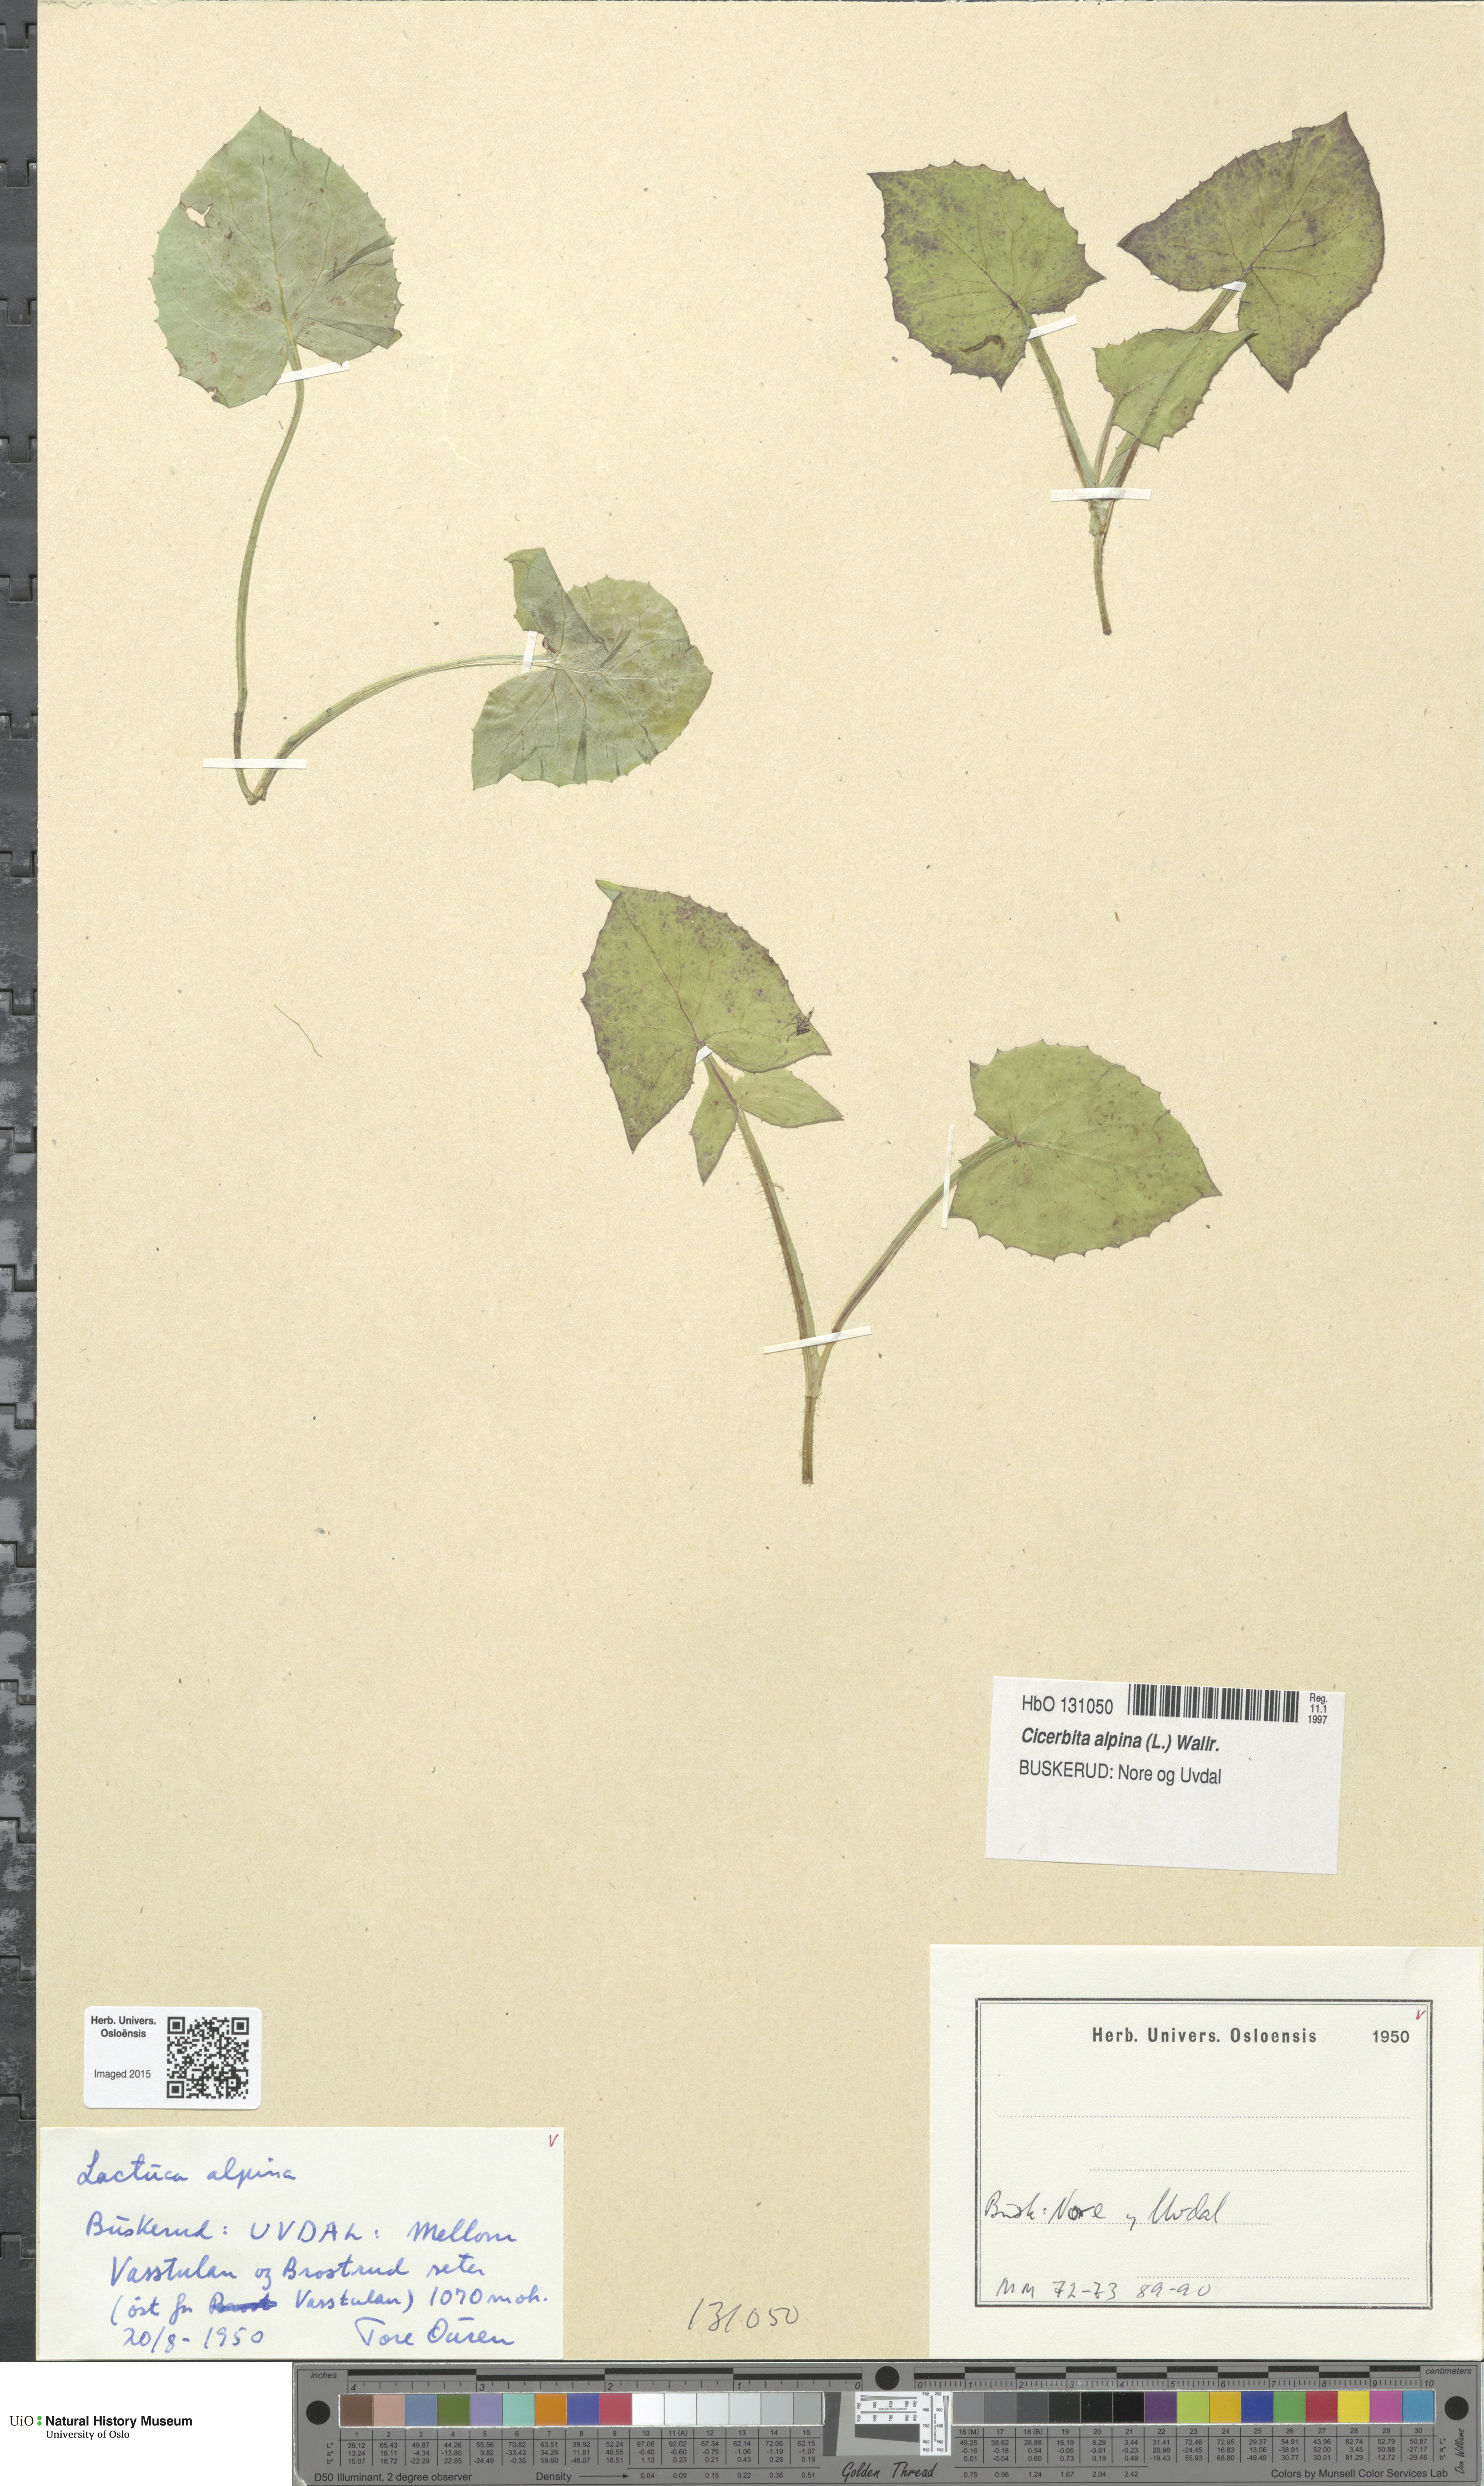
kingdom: Plantae
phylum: Tracheophyta
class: Magnoliopsida
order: Asterales
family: Asteraceae
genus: Cicerbita
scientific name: Cicerbita alpina
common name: Alpine blue-sow-thistle
